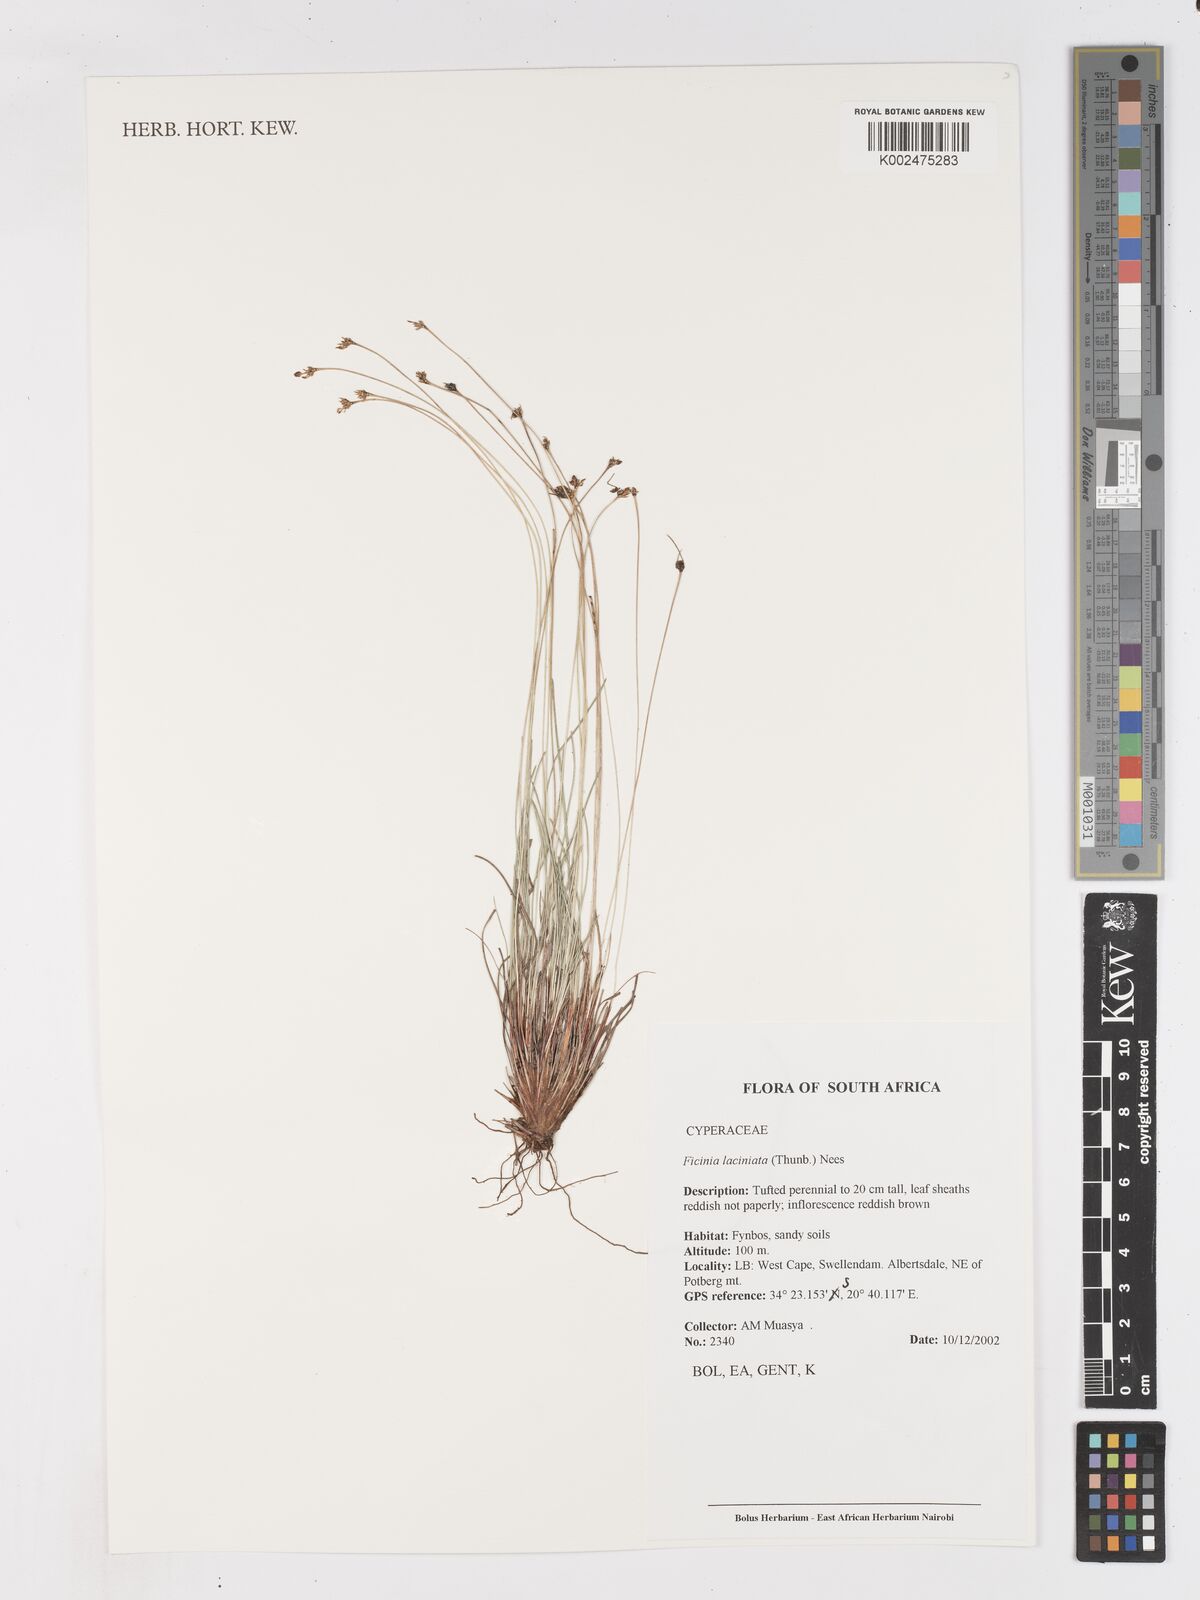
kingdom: Plantae
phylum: Tracheophyta
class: Liliopsida
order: Poales
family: Cyperaceae
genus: Ficinia
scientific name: Ficinia laciniata
